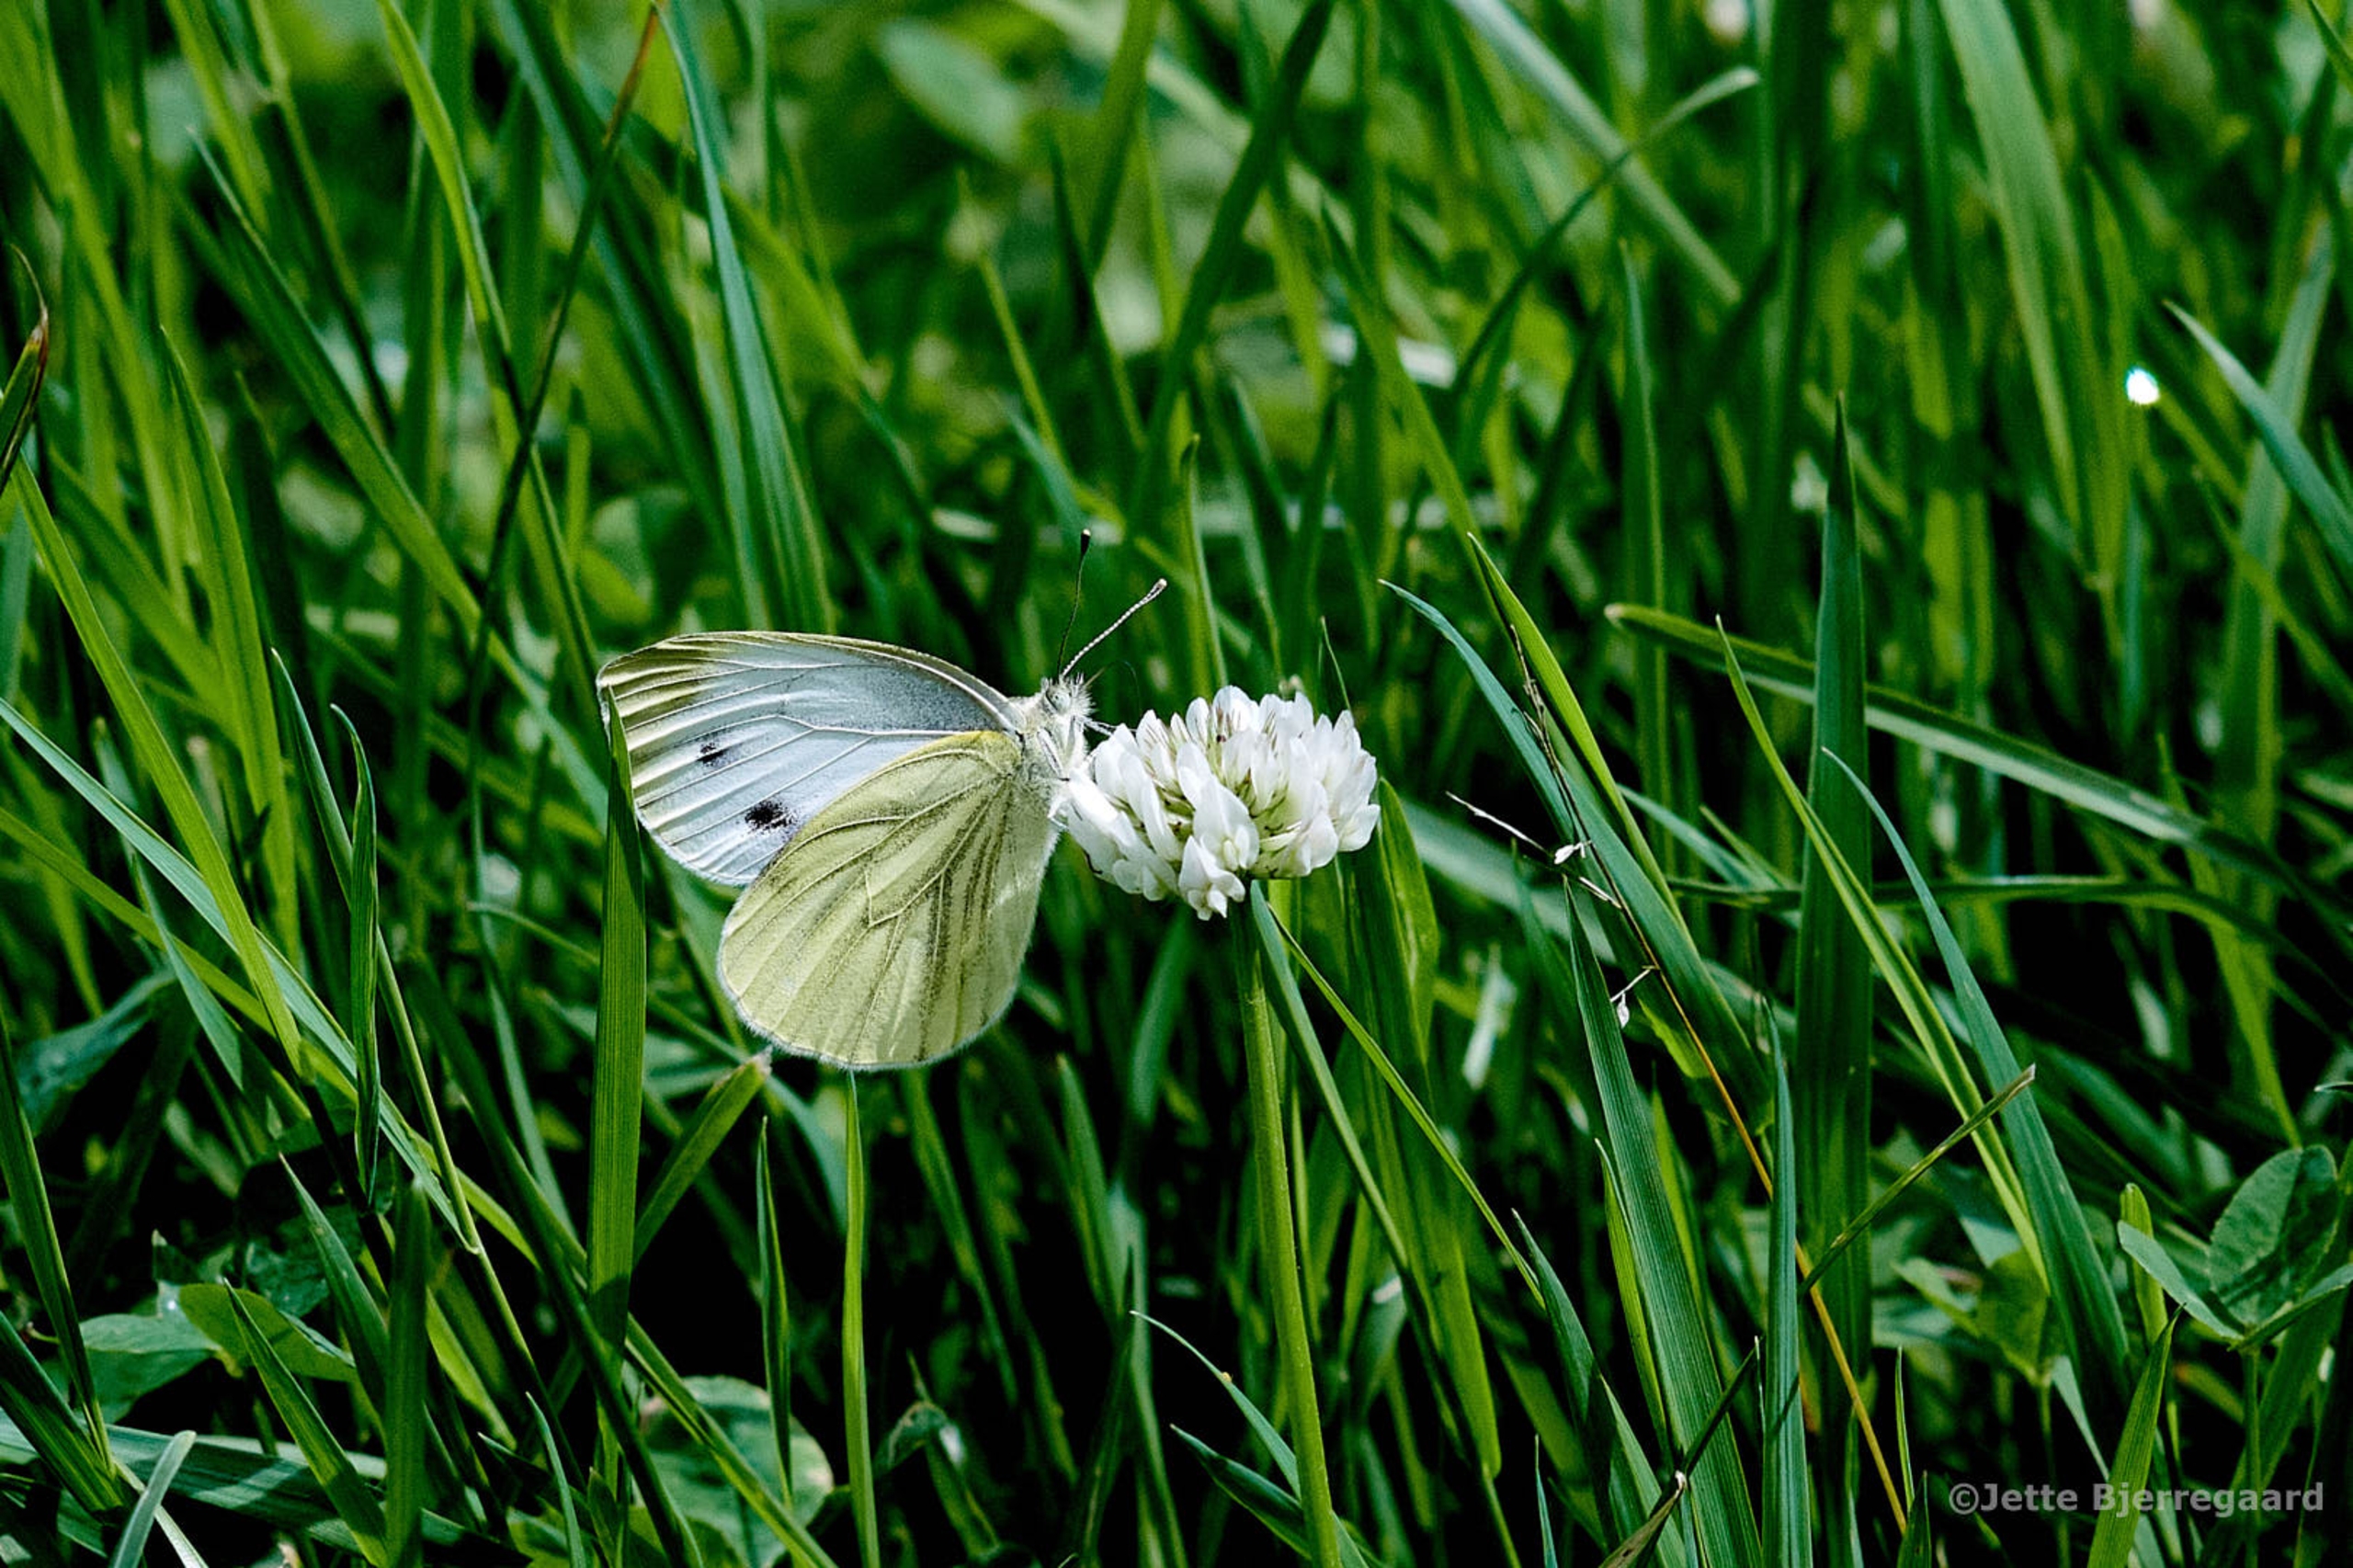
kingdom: Animalia
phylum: Arthropoda
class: Insecta
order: Lepidoptera
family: Pieridae
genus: Pieris
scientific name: Pieris napi
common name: Grønåret kålsommerfugl
